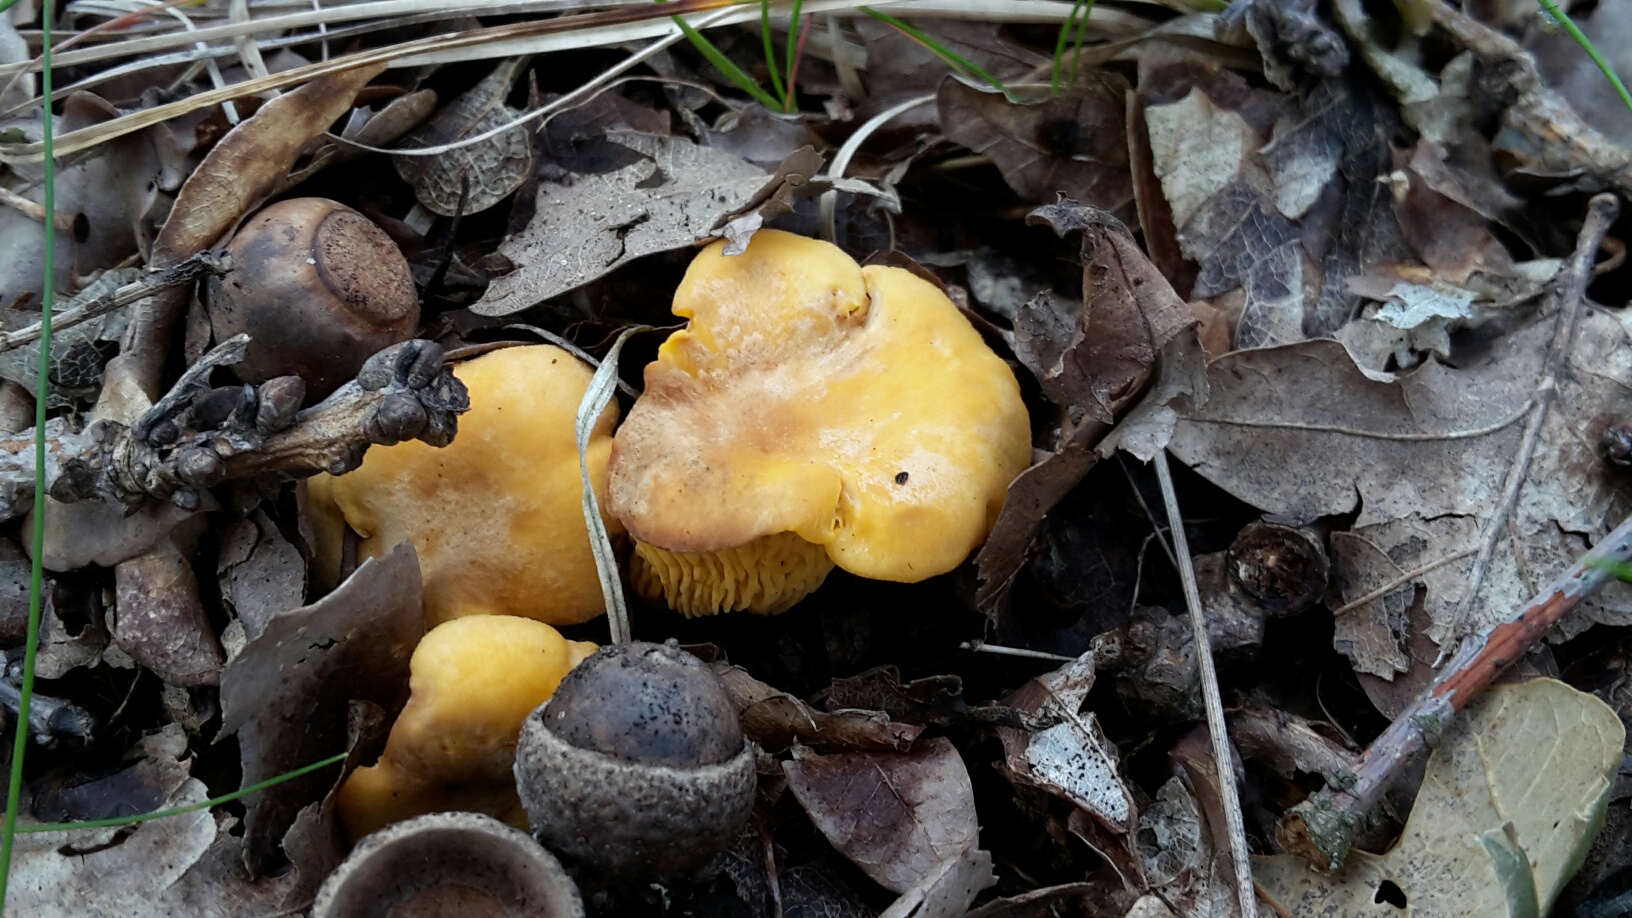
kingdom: Fungi
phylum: Basidiomycota
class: Agaricomycetes
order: Cantharellales
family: Hydnaceae
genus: Cantharellus
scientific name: Cantharellus cibarius
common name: almindelig kantarel
